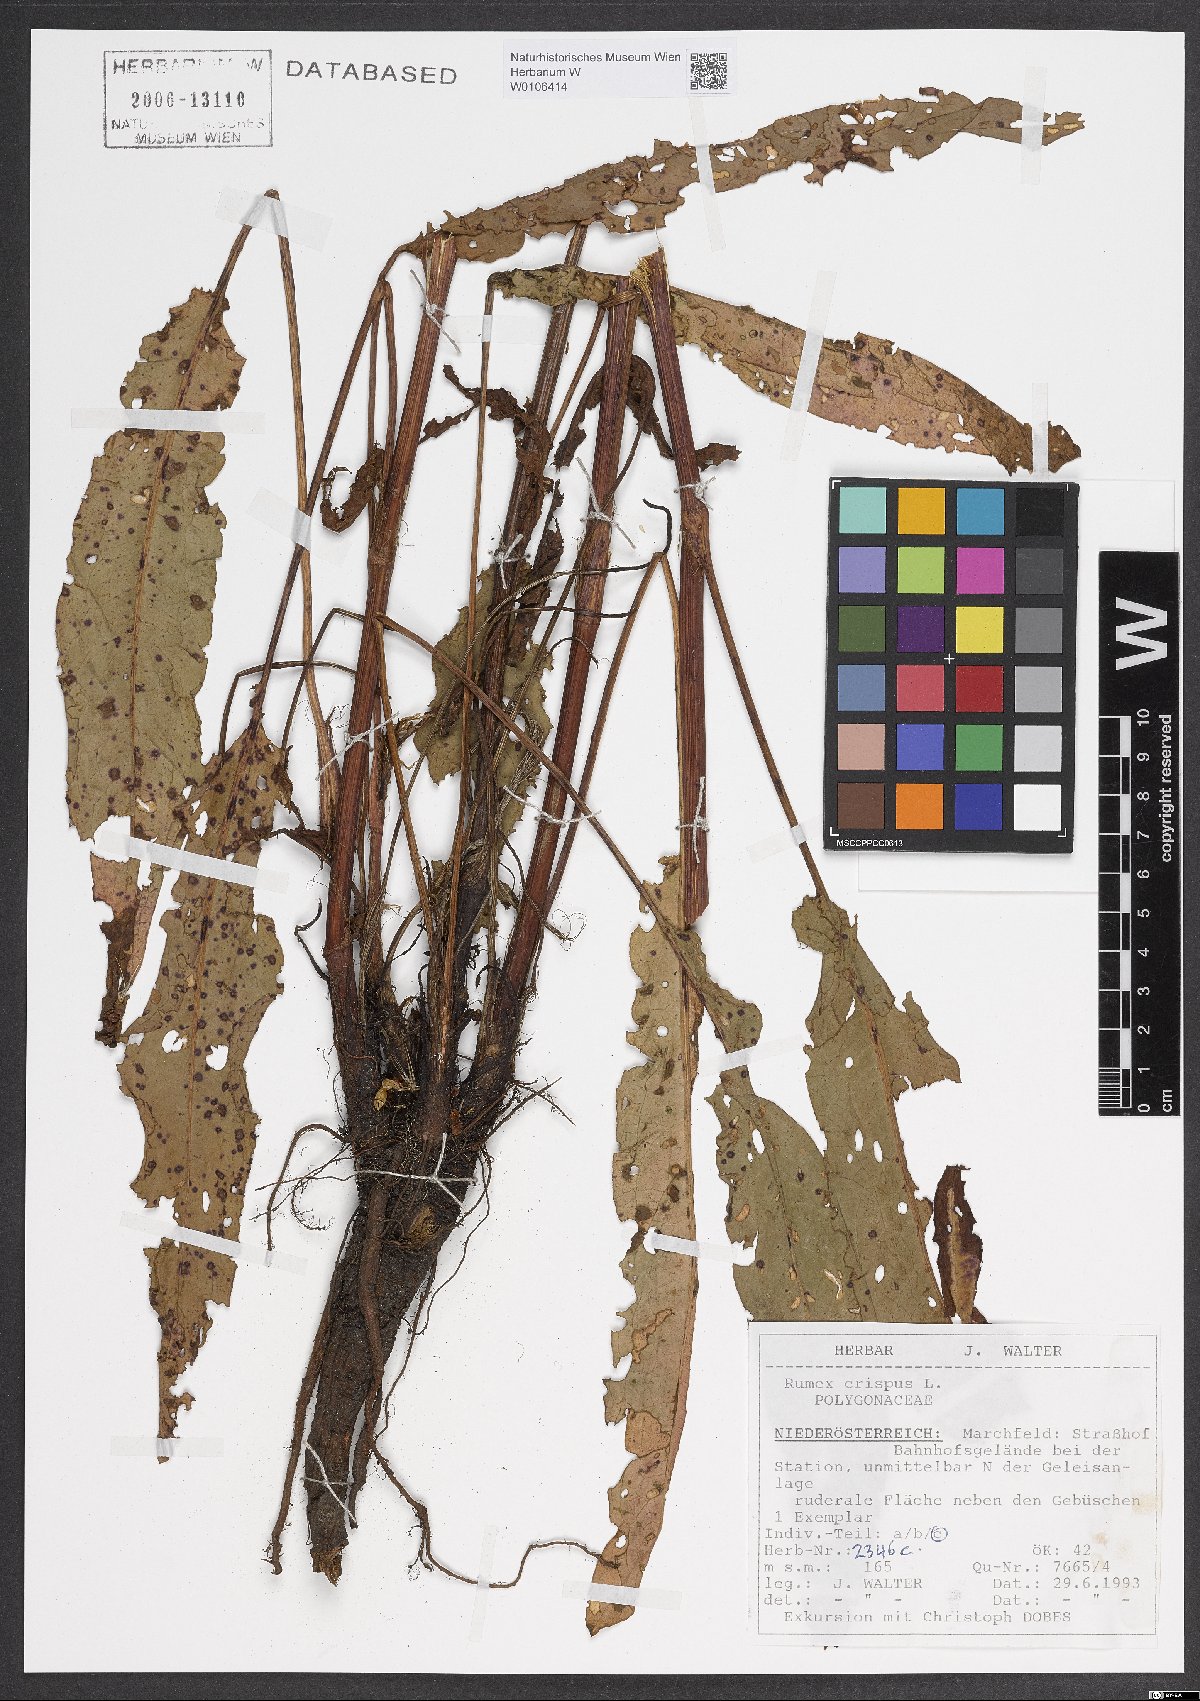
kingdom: Plantae
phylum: Tracheophyta
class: Magnoliopsida
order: Caryophyllales
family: Polygonaceae
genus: Rumex
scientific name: Rumex crispus
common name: Curled dock
